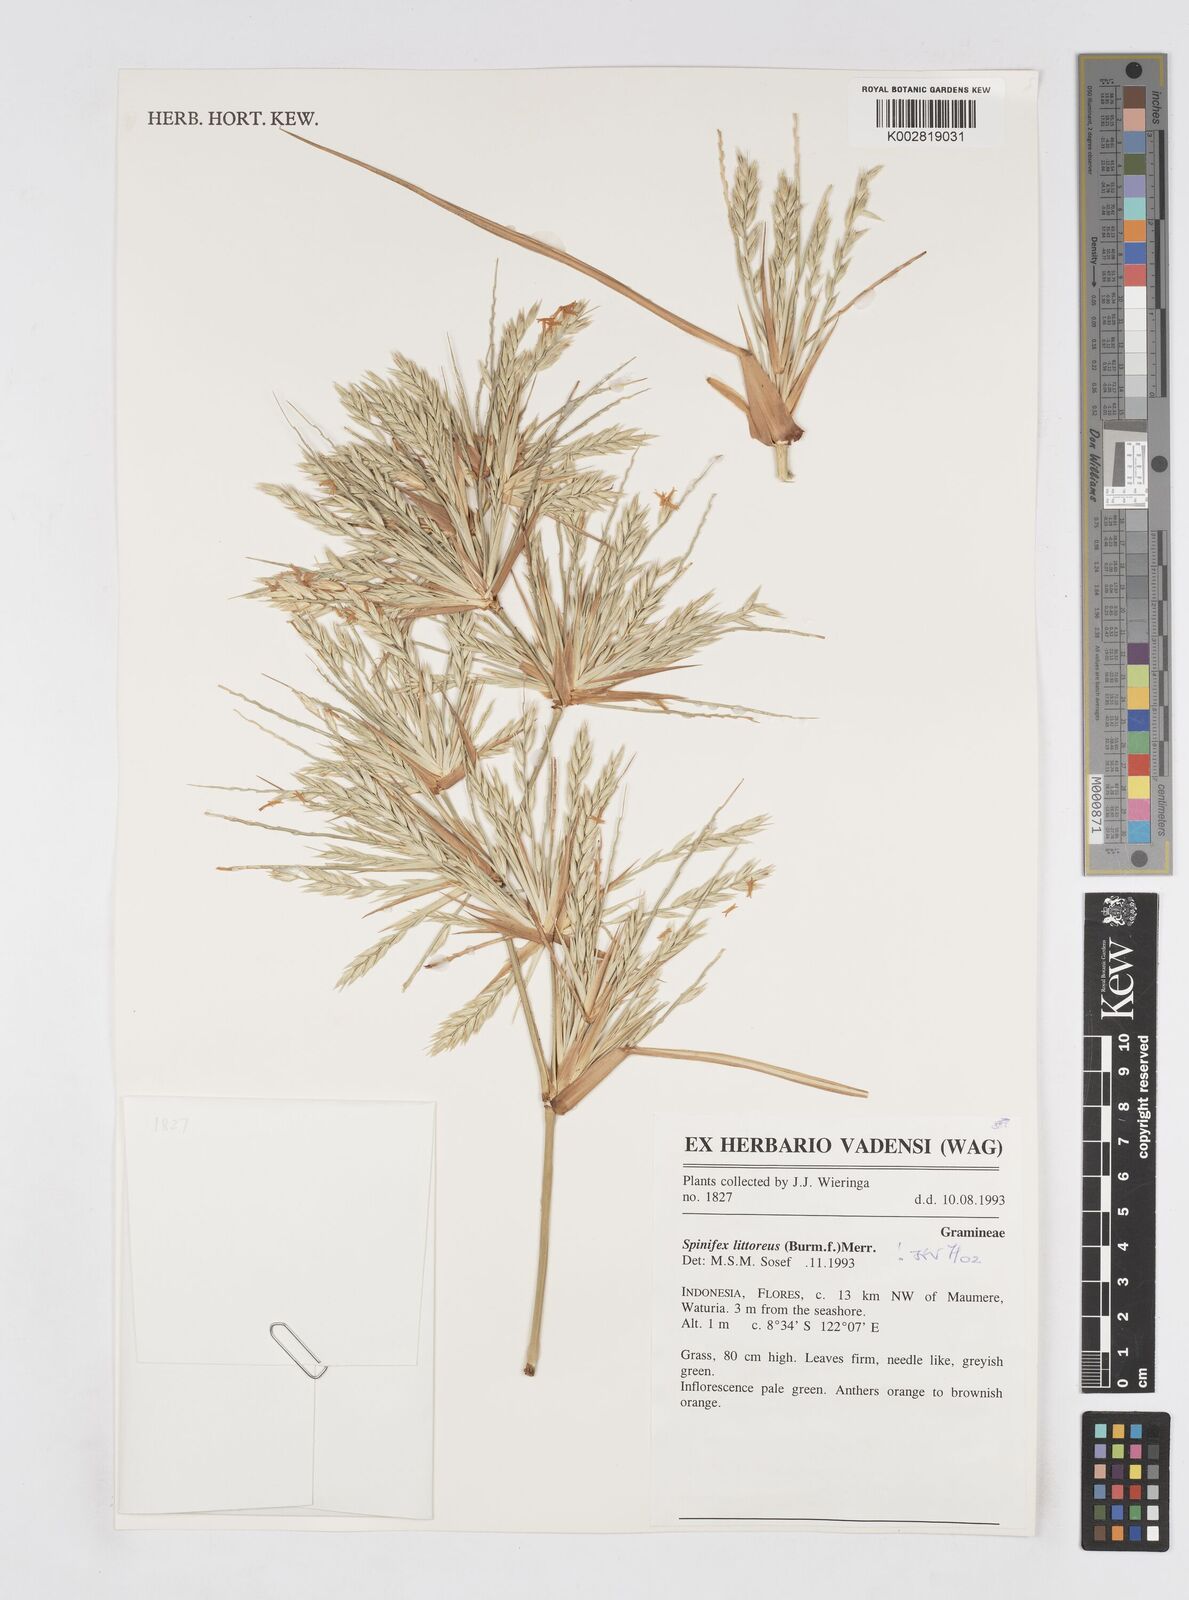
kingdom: Plantae
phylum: Tracheophyta
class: Liliopsida
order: Poales
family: Poaceae
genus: Spinifex
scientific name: Spinifex littoreus
